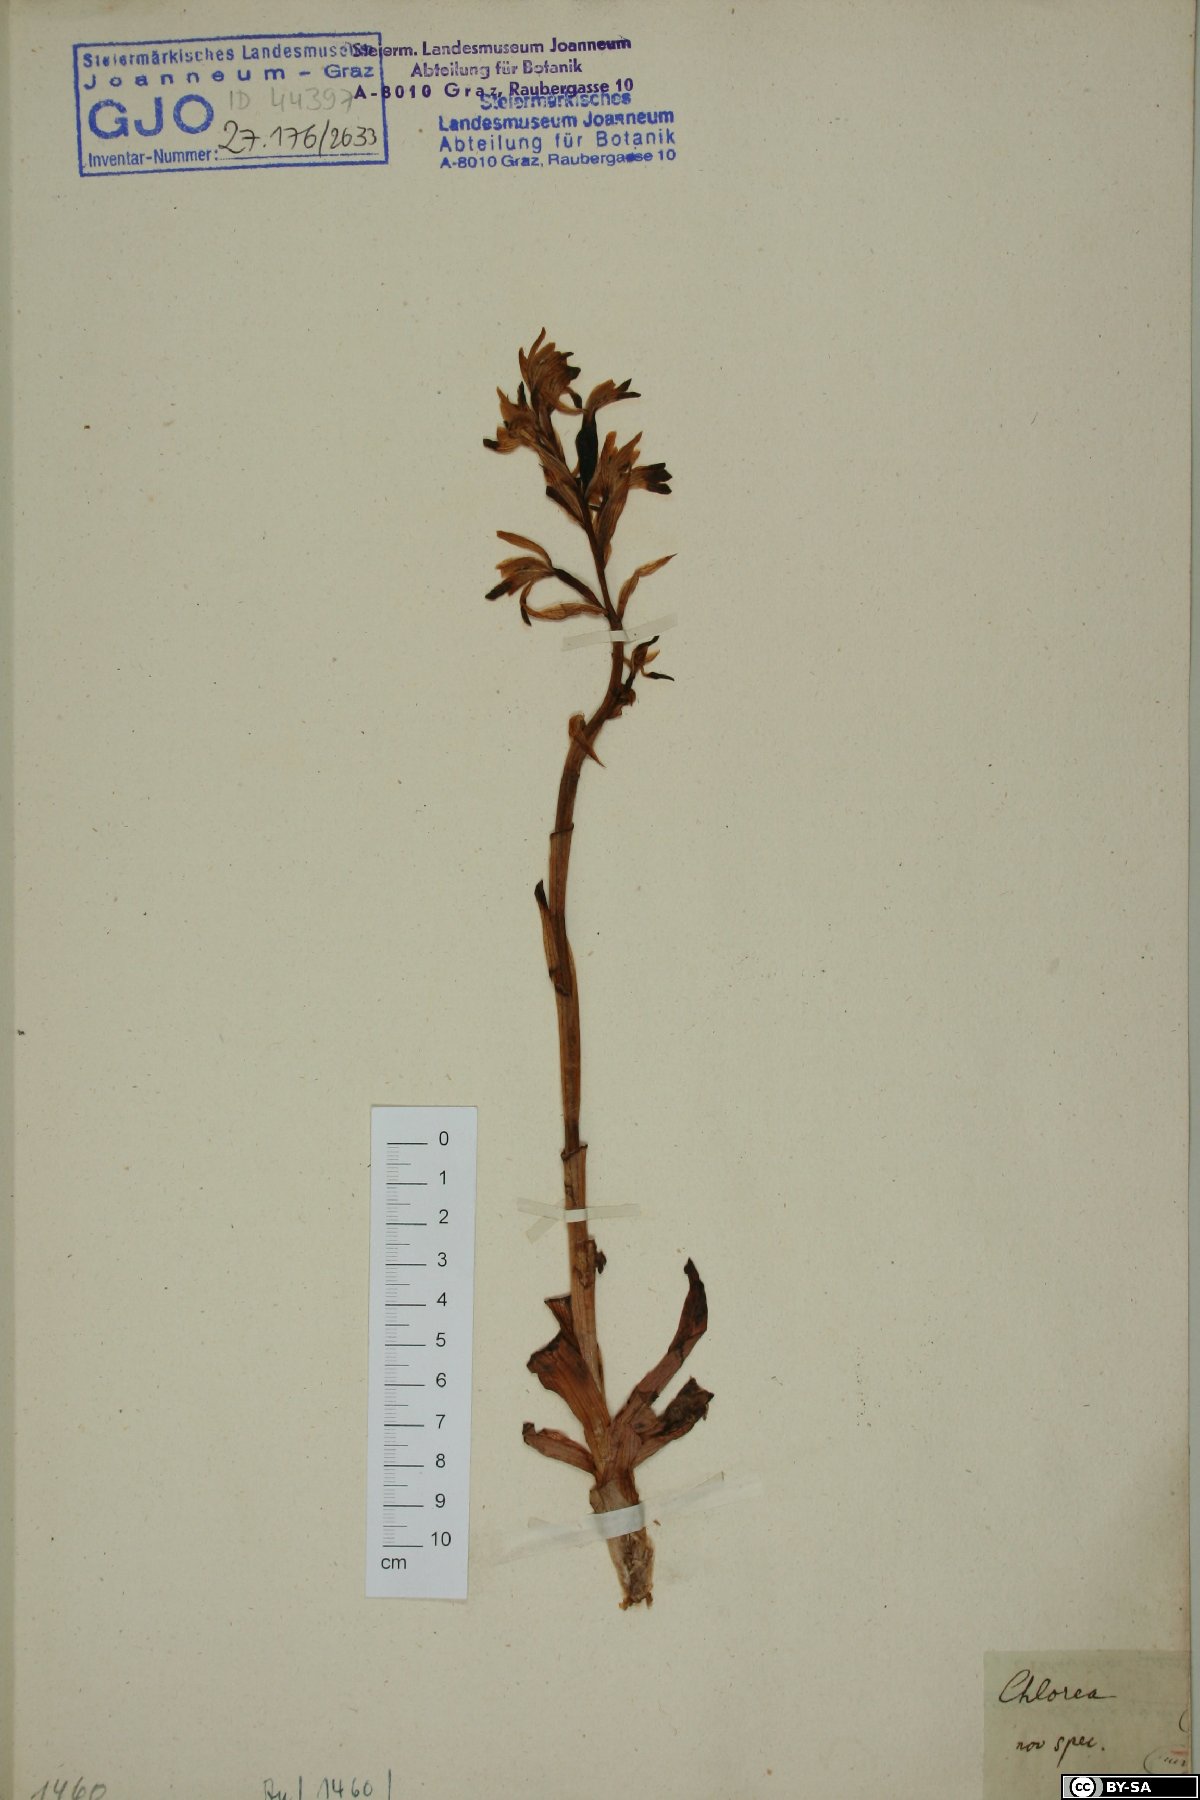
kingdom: Plantae
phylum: Tracheophyta
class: Liliopsida
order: Asparagales
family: Orchidaceae
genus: Chloraea
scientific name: Chloraea
